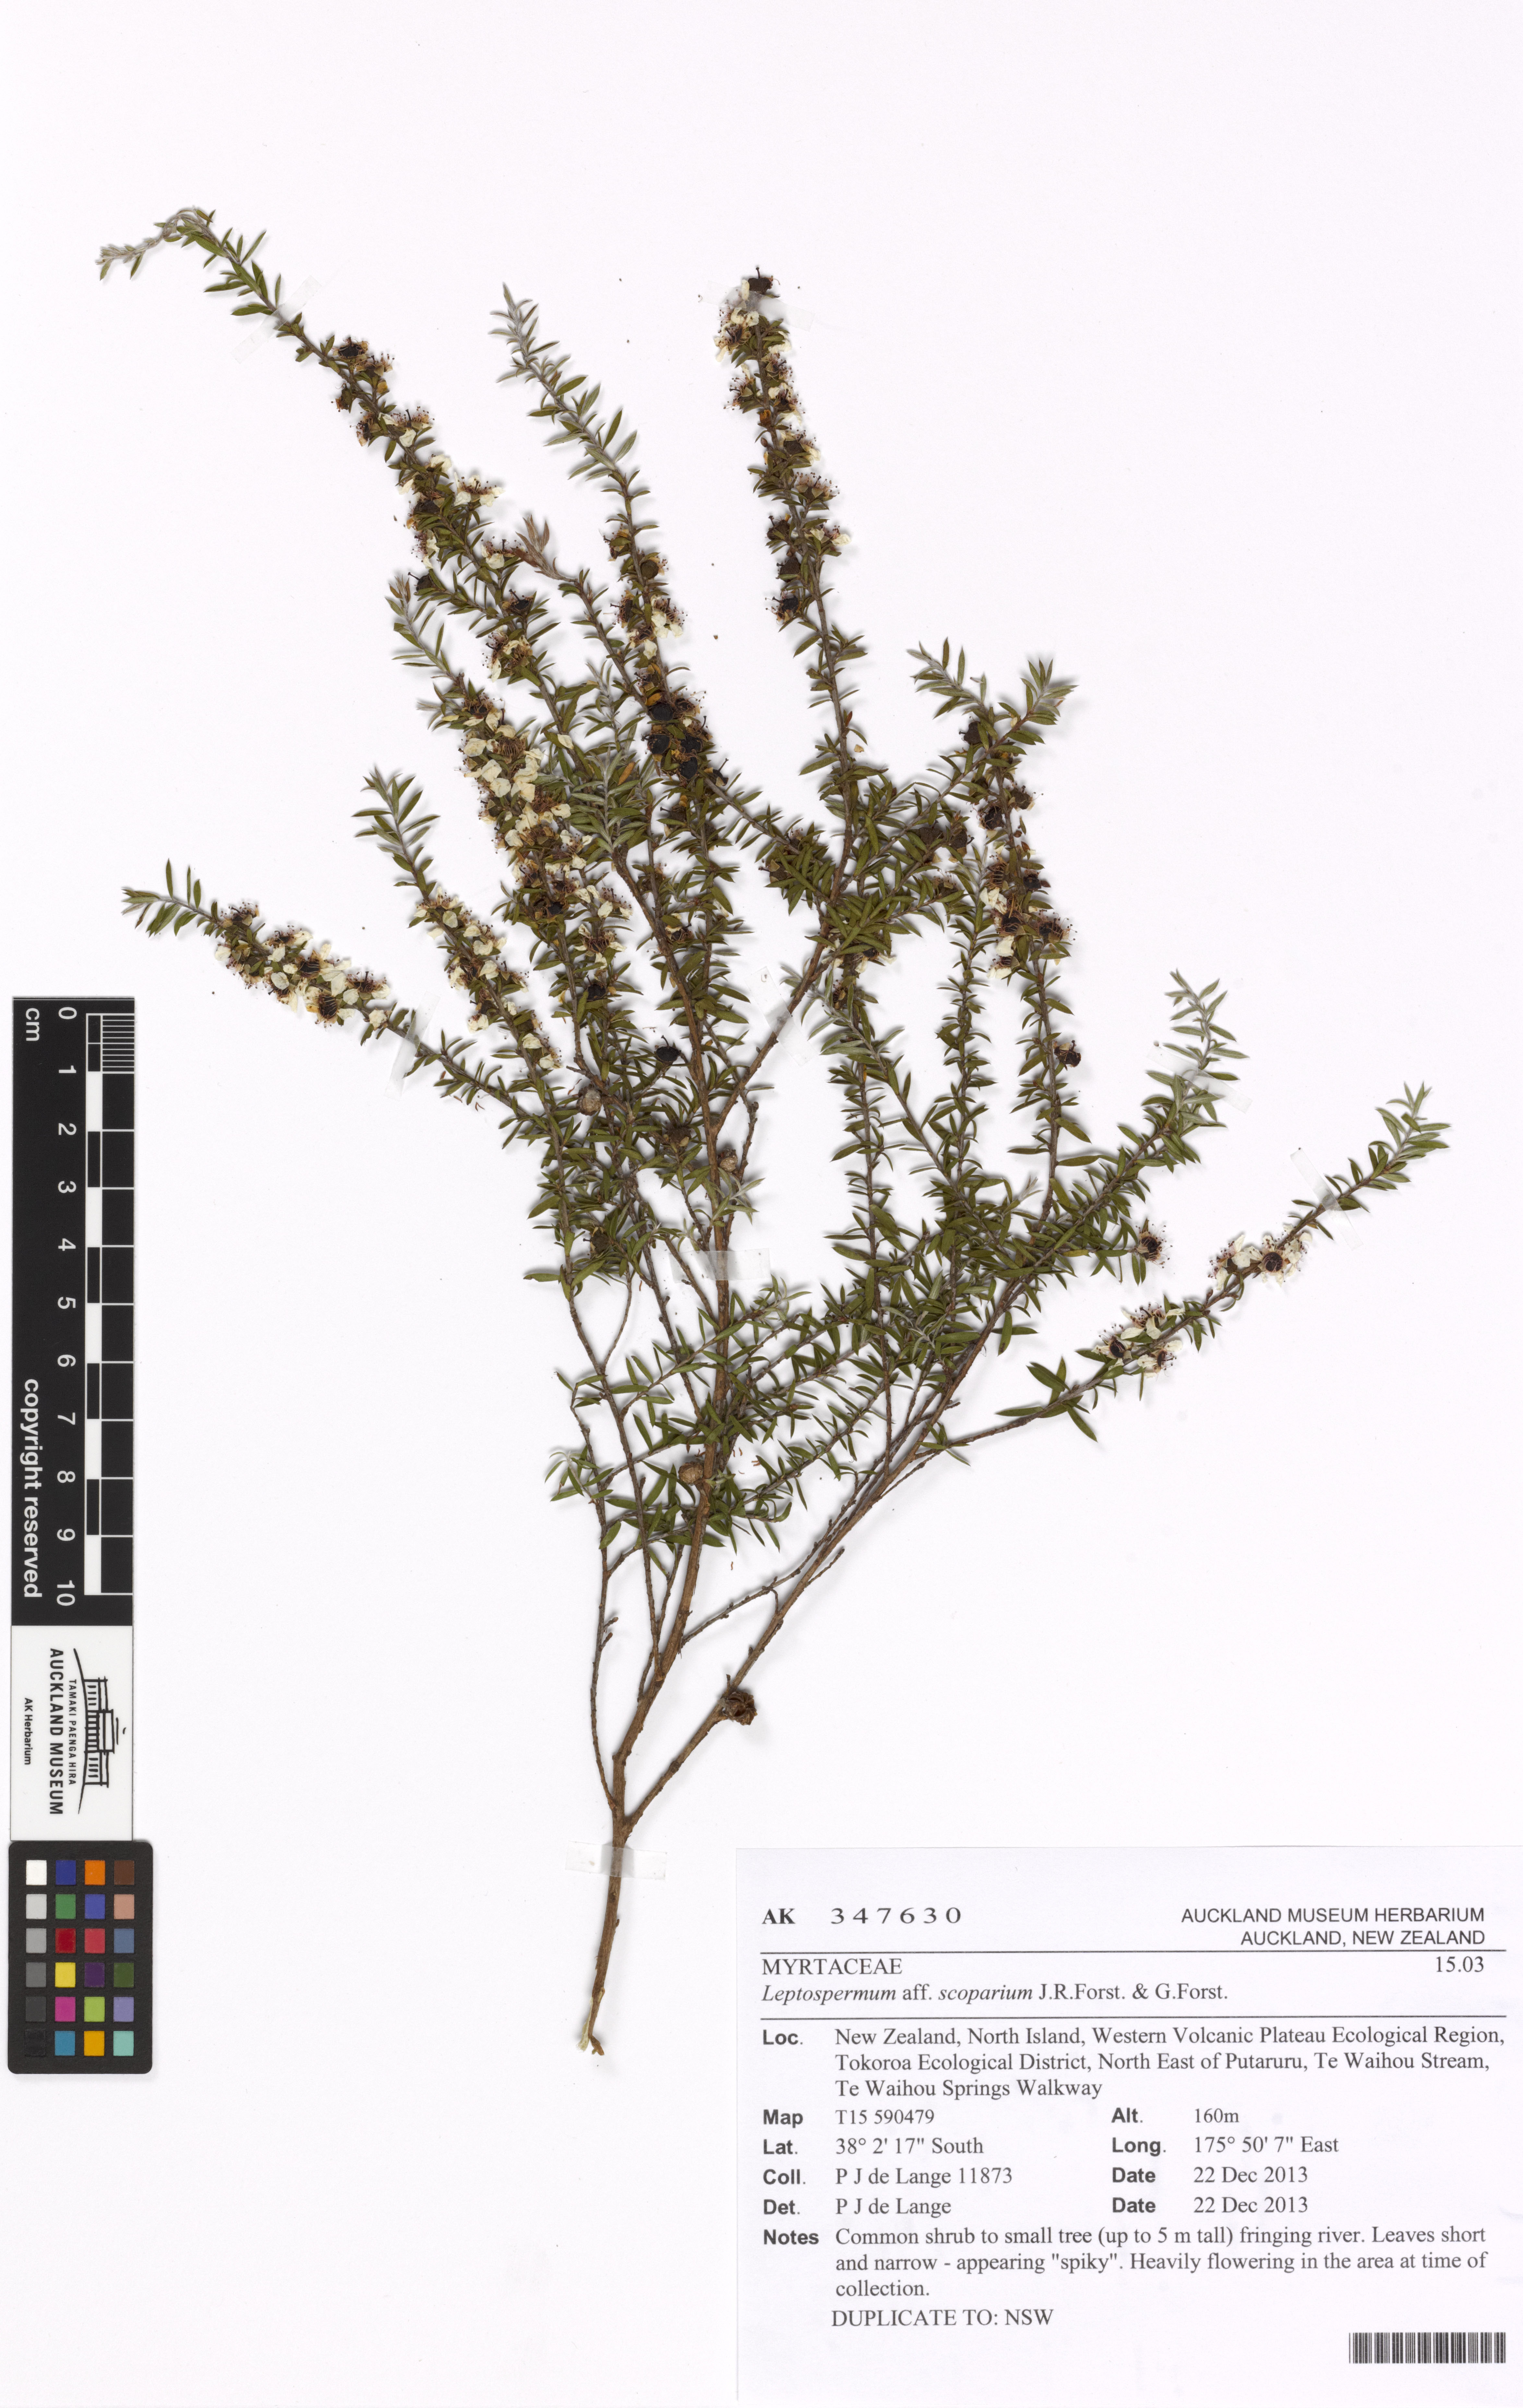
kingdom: Plantae
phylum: Tracheophyta
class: Magnoliopsida
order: Myrtales
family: Myrtaceae
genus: Leptospermum
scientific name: Leptospermum scoparium
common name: Broom tea-tree
